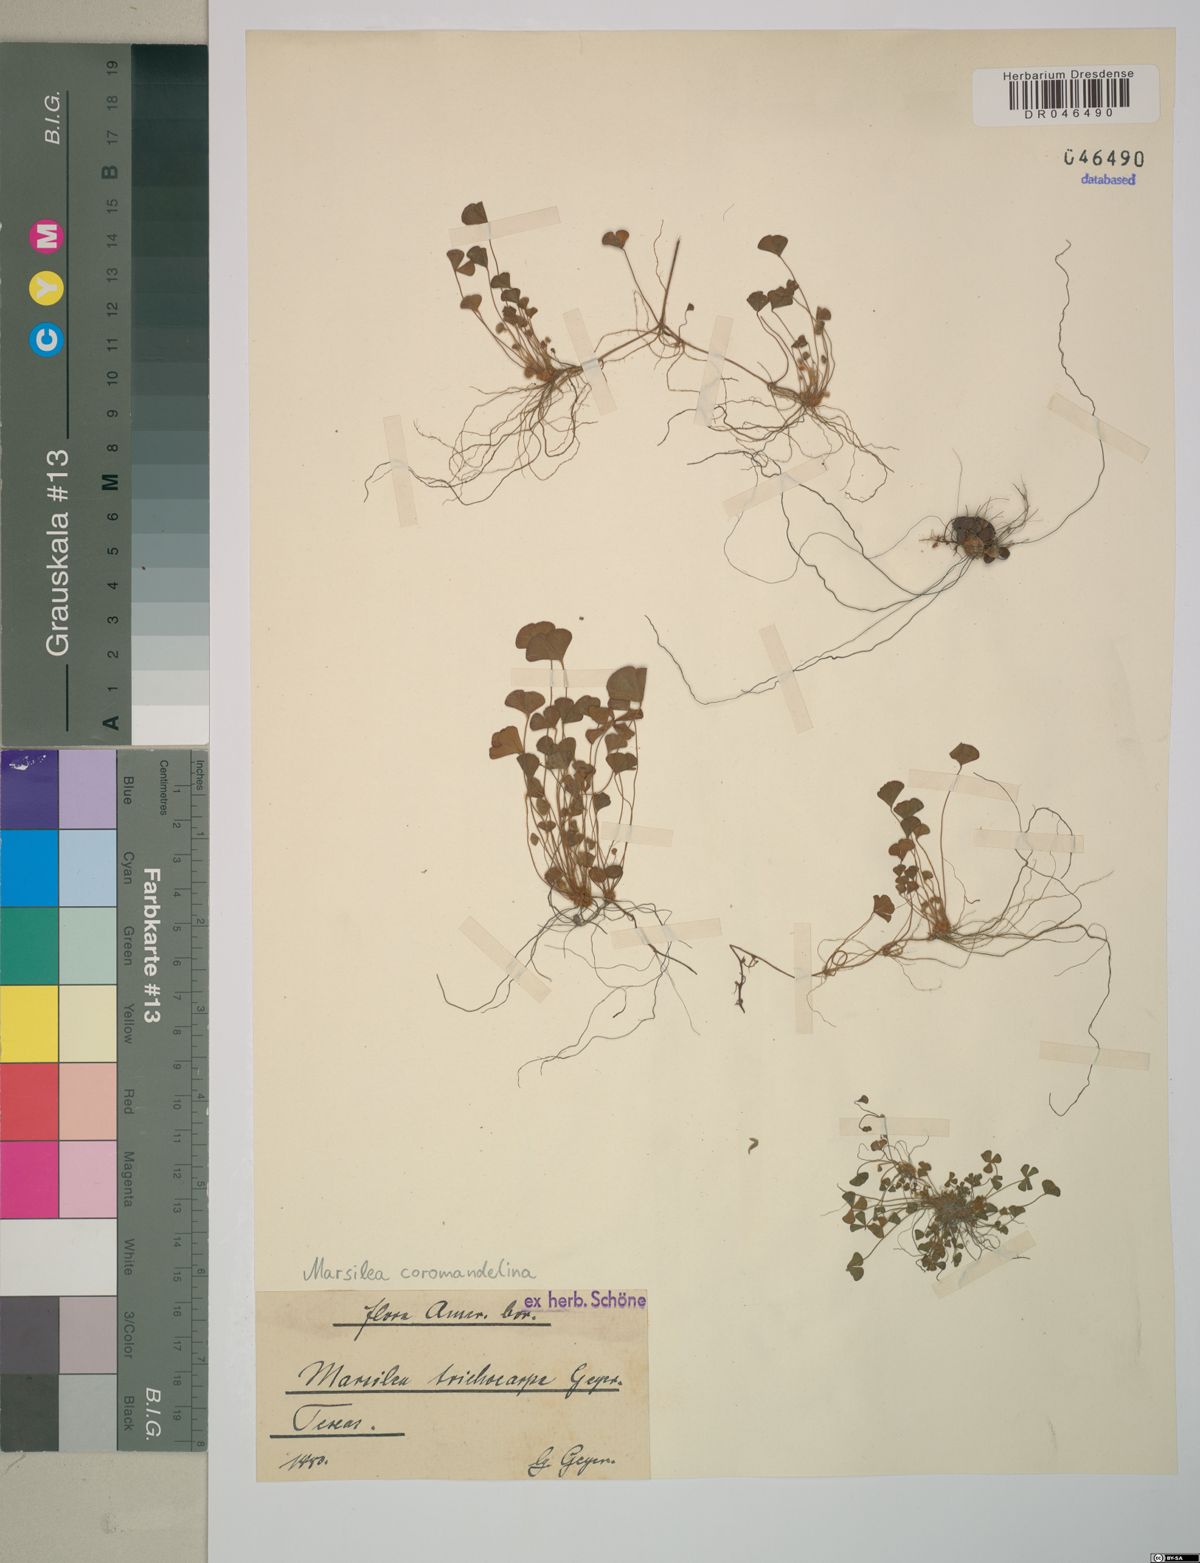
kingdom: Plantae
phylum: Tracheophyta
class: Polypodiopsida
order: Salviniales
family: Marsileaceae
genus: Marsilea
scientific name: Marsilea coromandelina
